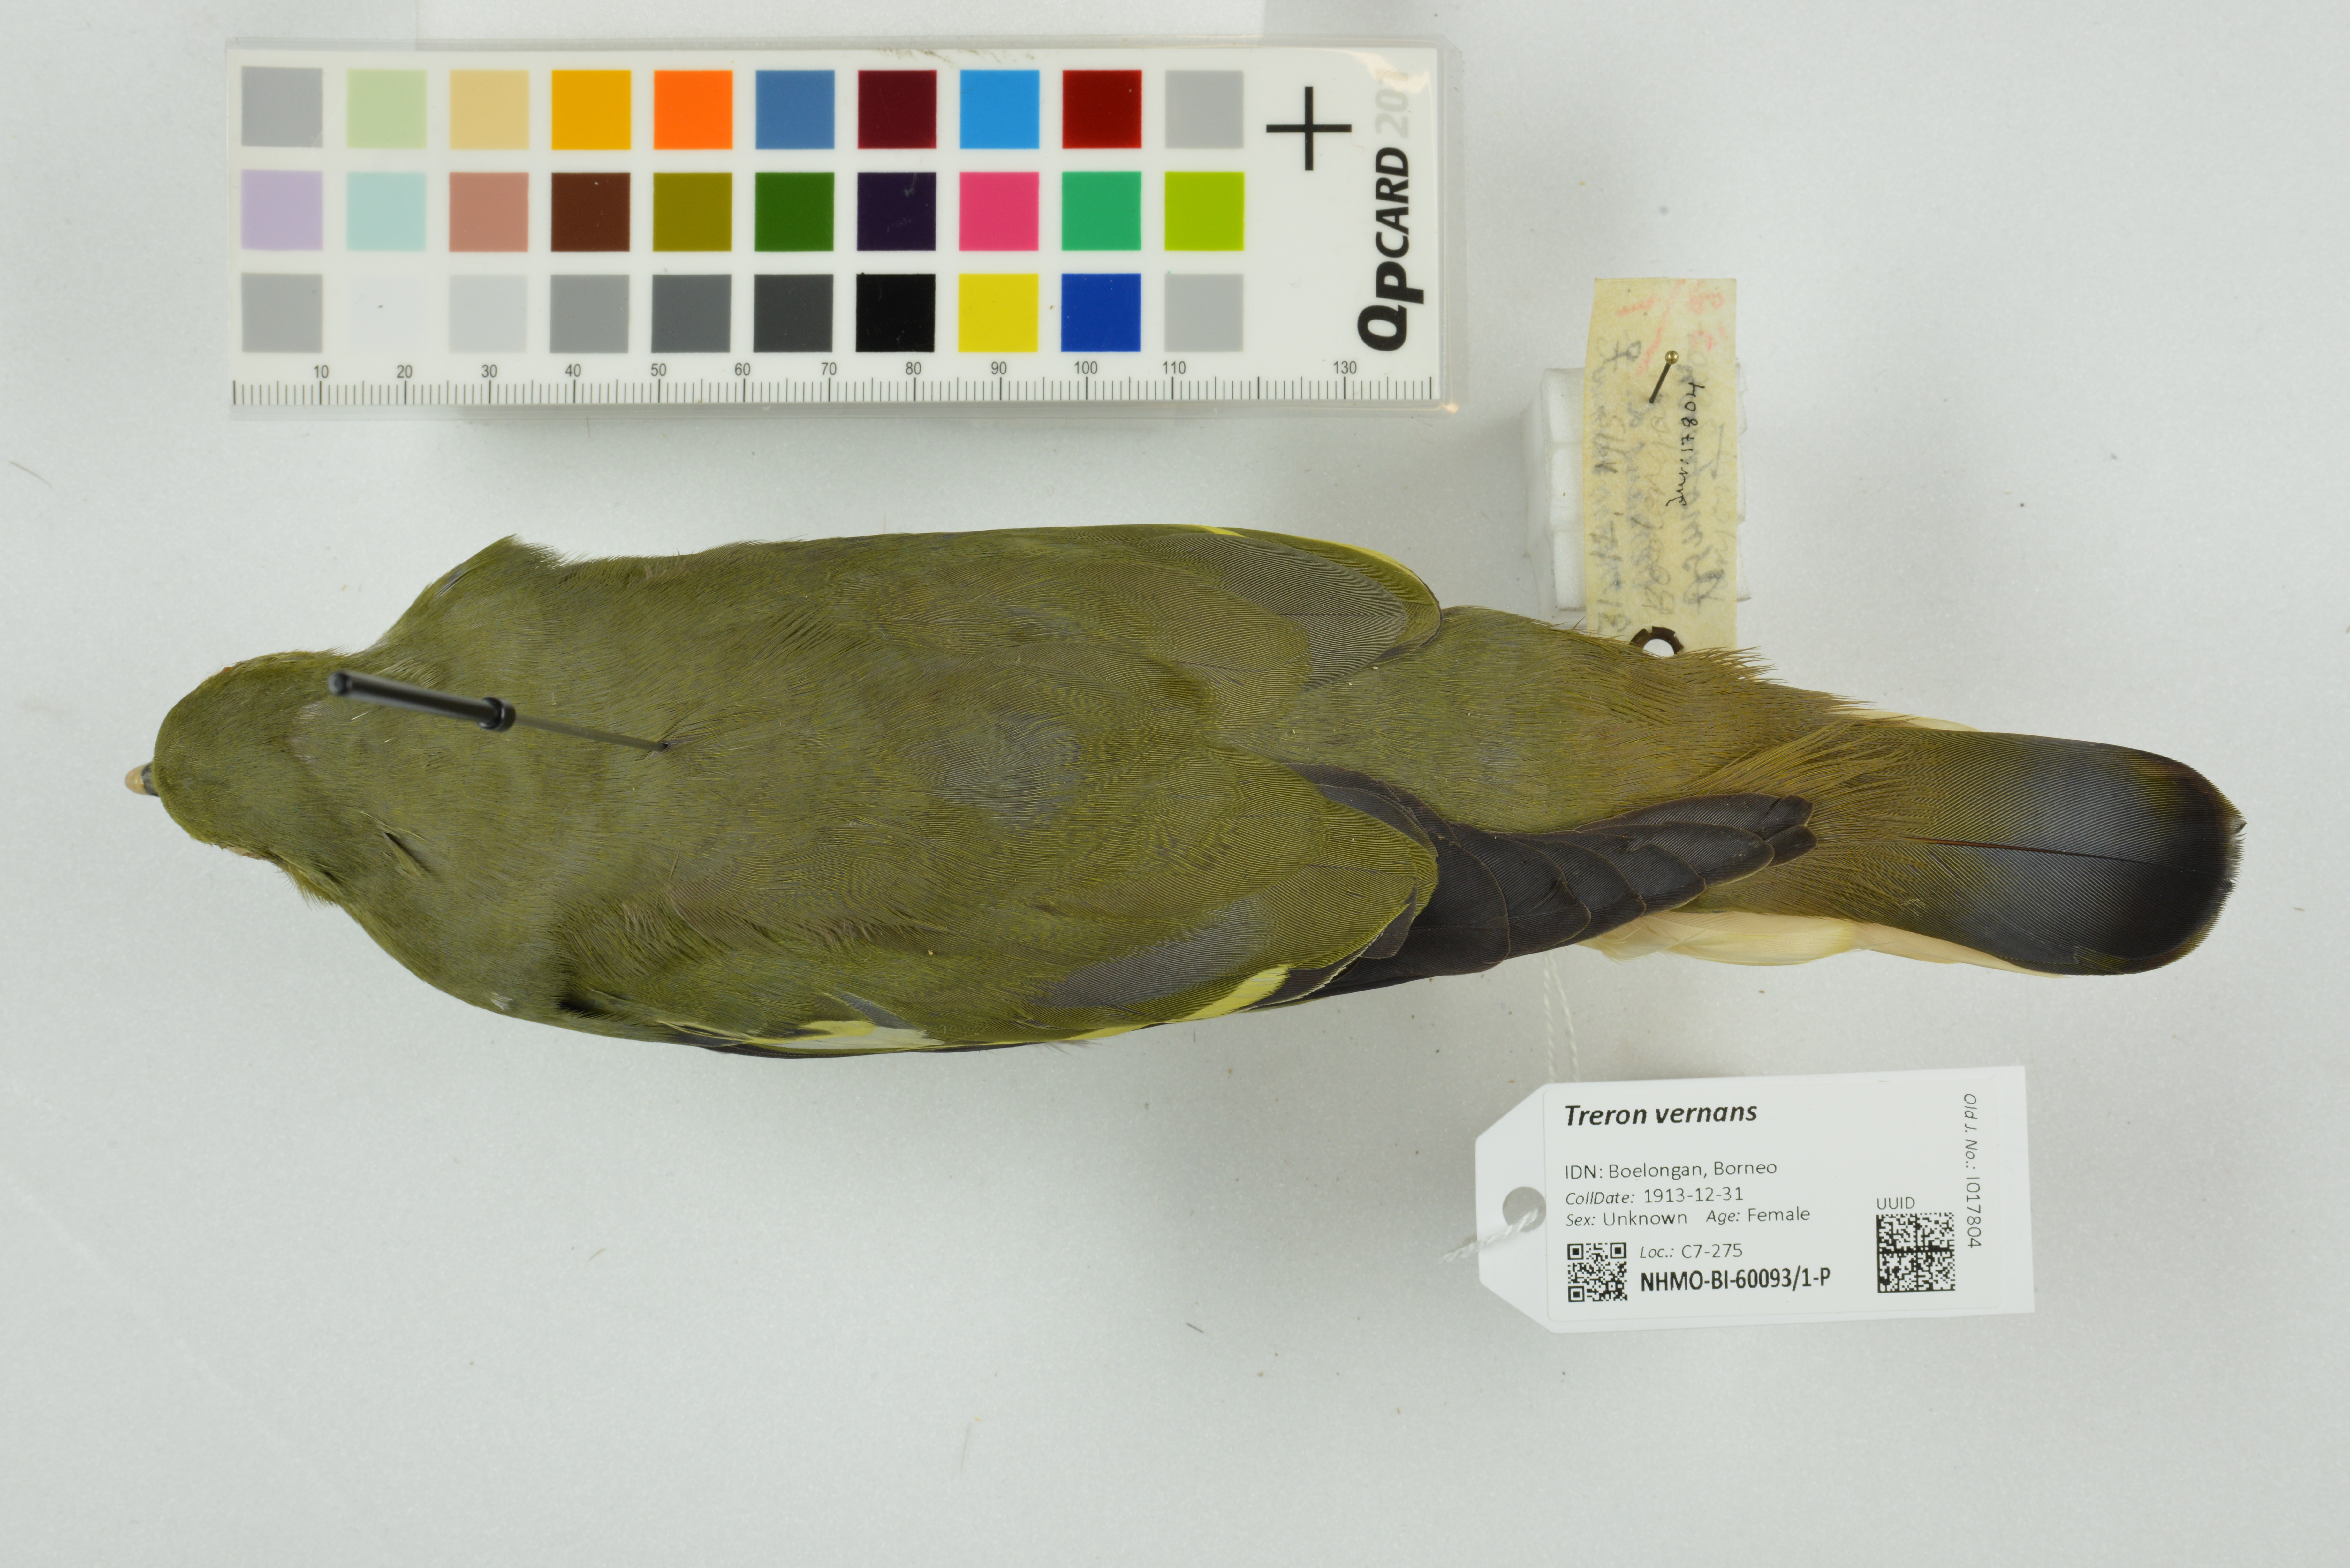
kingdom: Animalia
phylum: Chordata
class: Aves
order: Columbiformes
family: Columbidae
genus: Treron
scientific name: Treron vernans
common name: Pink-necked green pigeon
